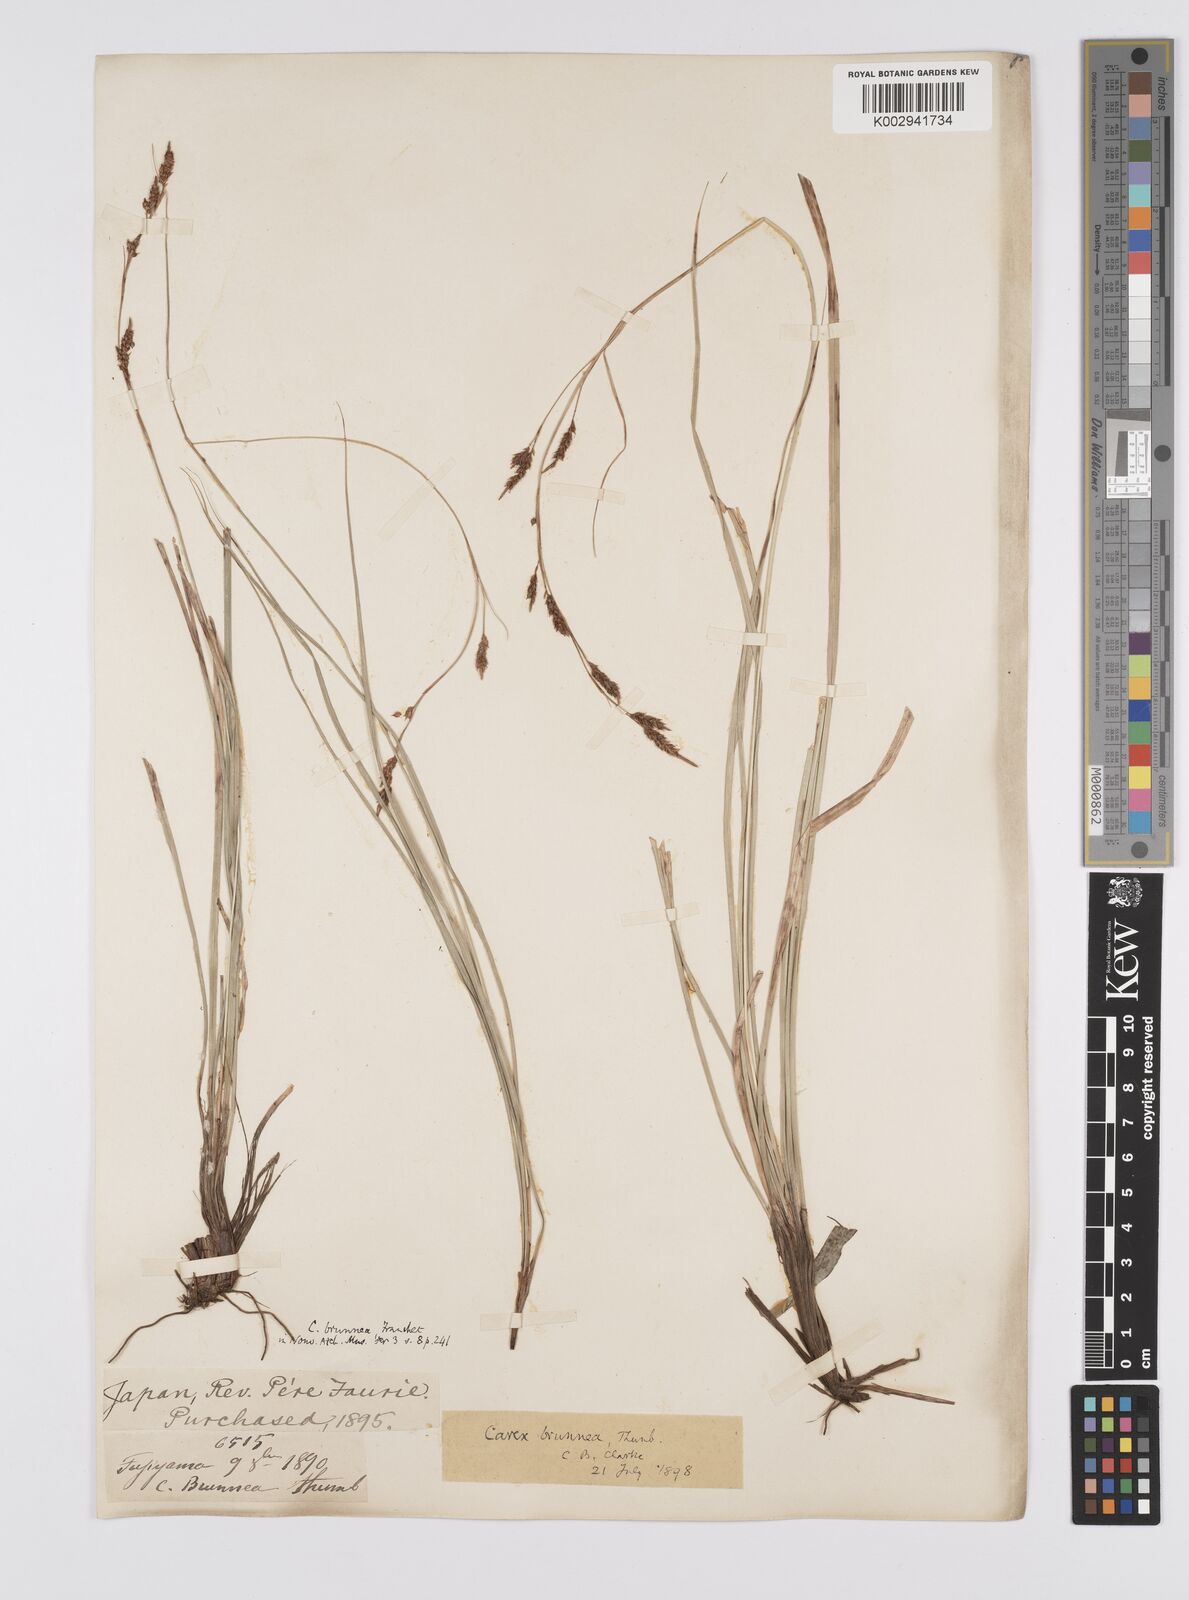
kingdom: Plantae
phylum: Tracheophyta
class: Liliopsida
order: Poales
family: Cyperaceae
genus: Carex
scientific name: Carex brunnea
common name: Greater brown sedge
